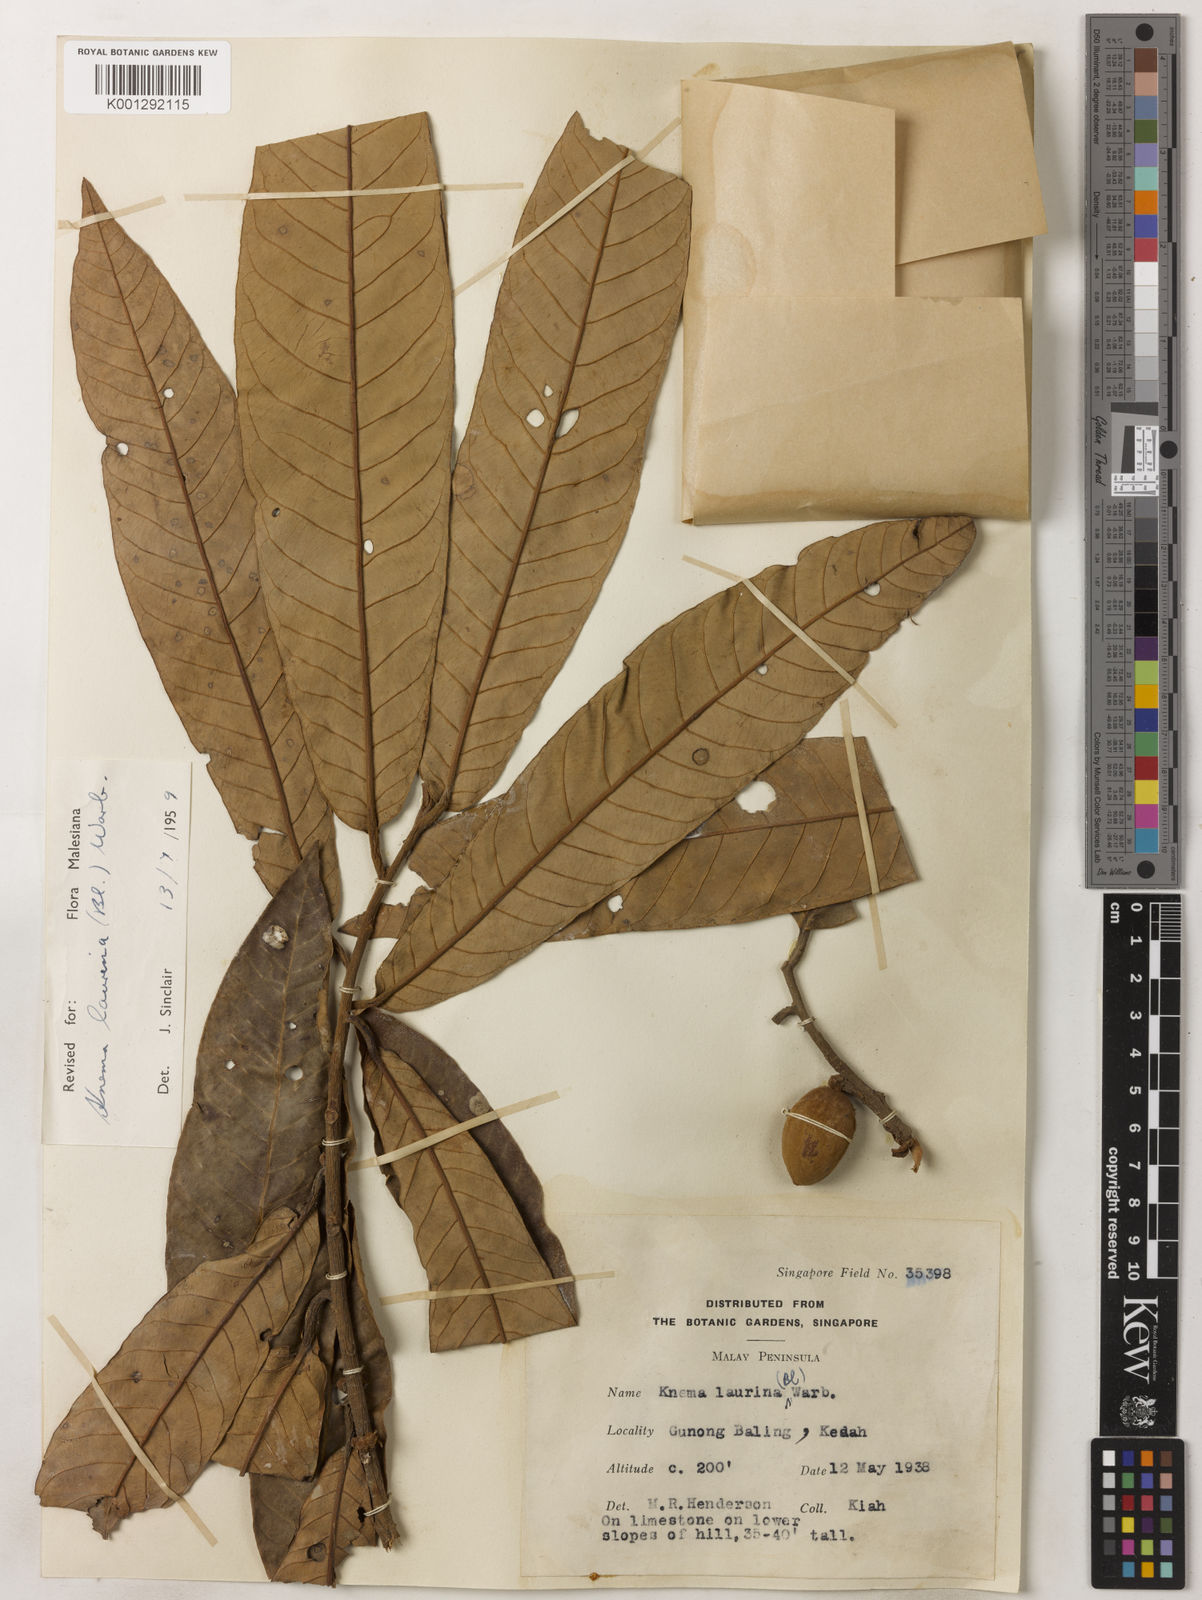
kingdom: Plantae
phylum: Tracheophyta
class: Magnoliopsida
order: Magnoliales
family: Myristicaceae
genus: Knema
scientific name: Knema laurina
